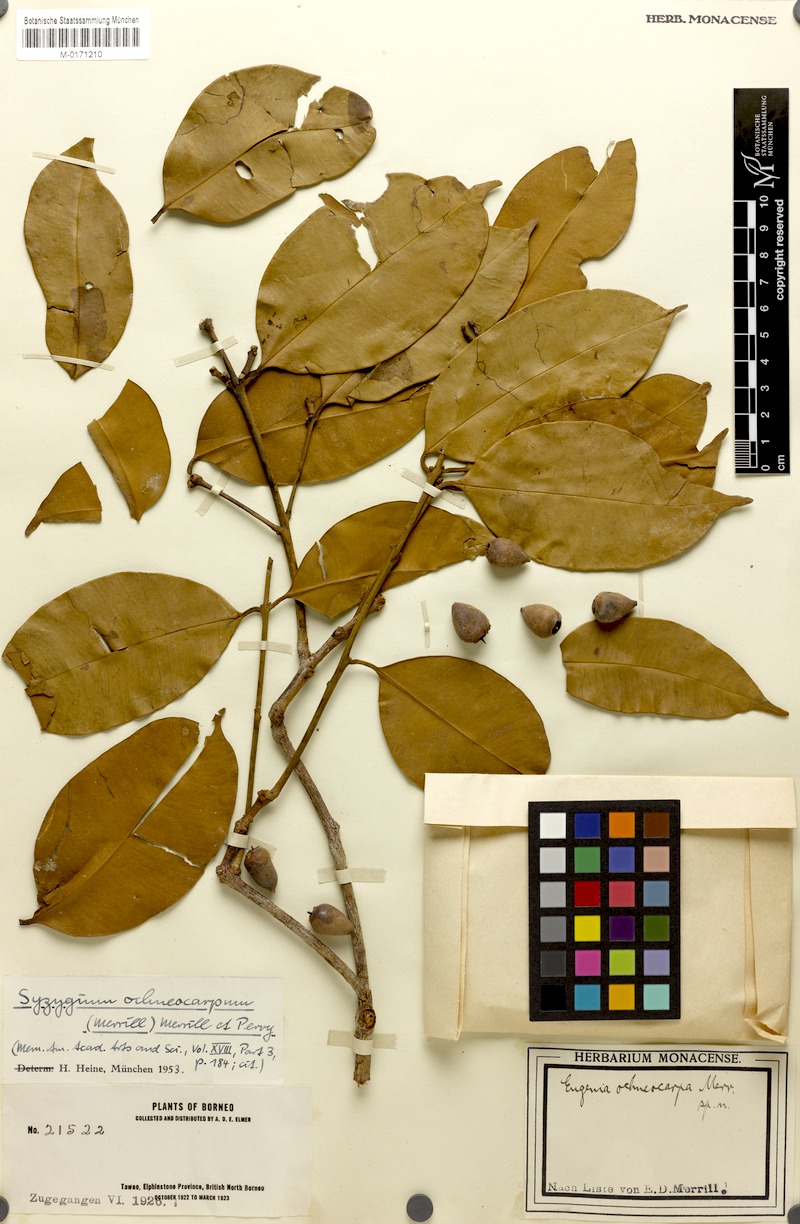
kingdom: Plantae
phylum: Tracheophyta
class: Magnoliopsida
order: Myrtales
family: Myrtaceae
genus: Syzygium
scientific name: Syzygium oligomyrum
